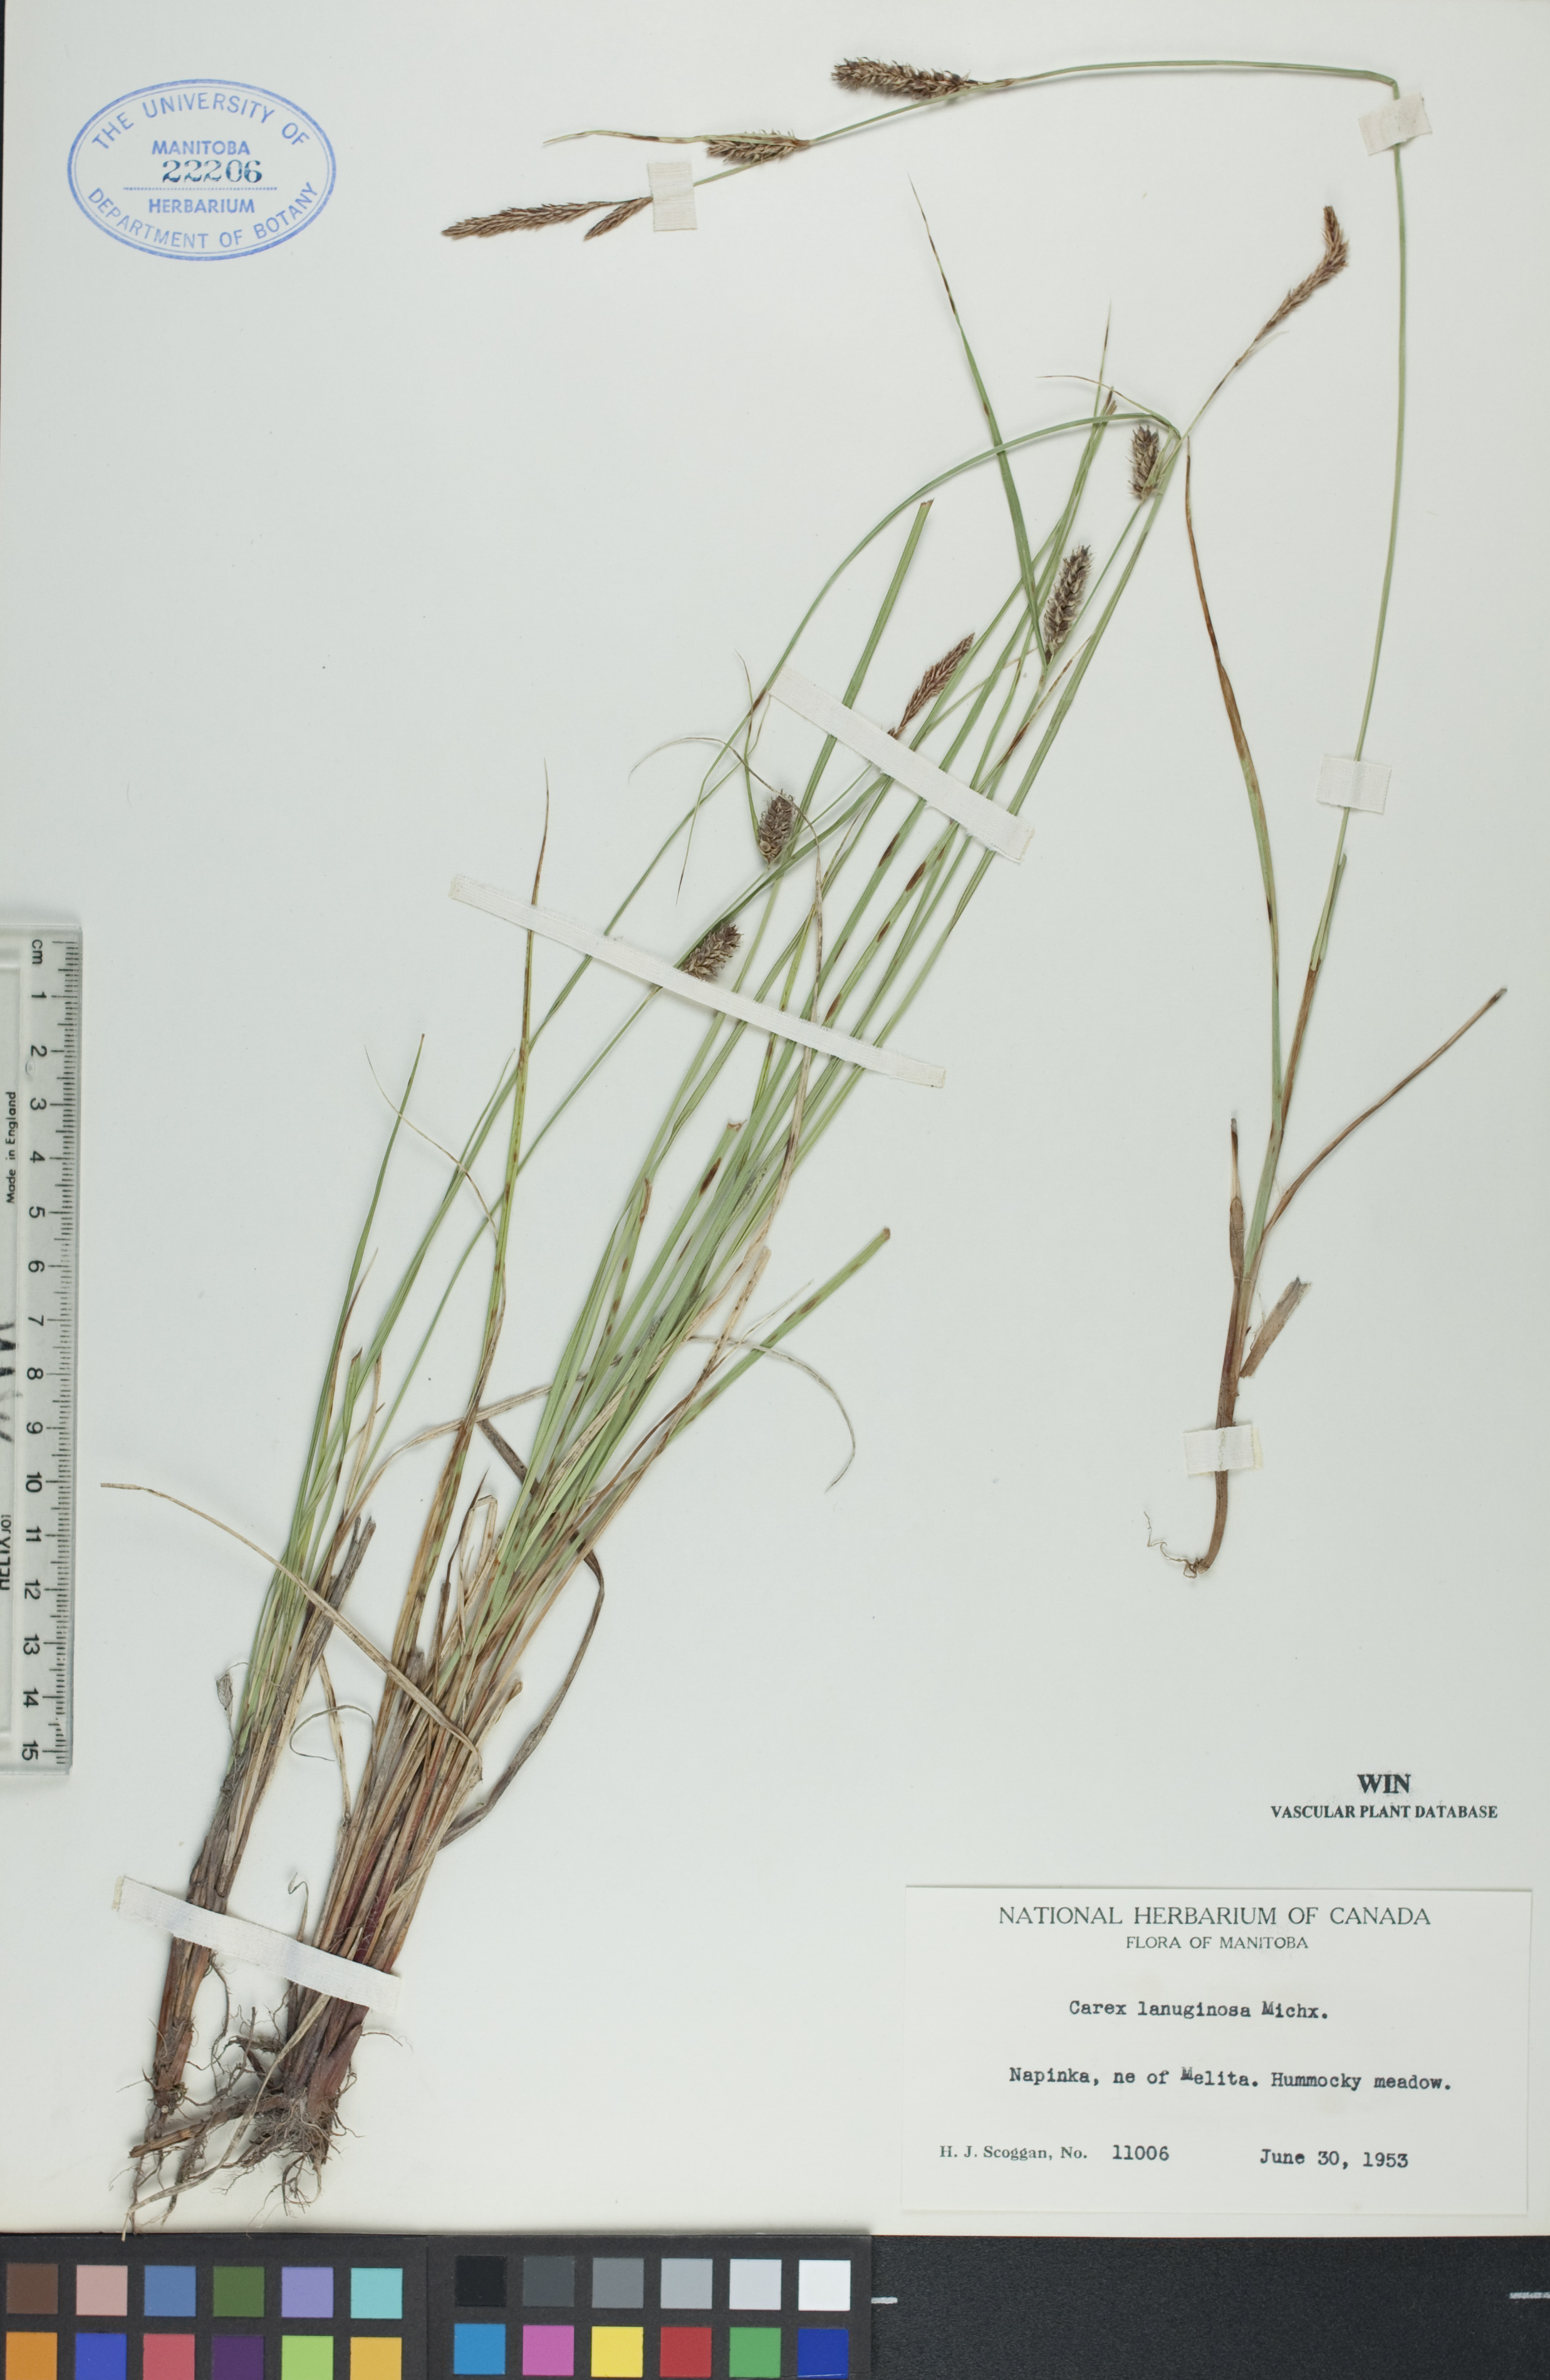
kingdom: Plantae
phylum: Tracheophyta
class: Liliopsida
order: Poales
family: Cyperaceae
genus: Carex
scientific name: Carex lasiocarpa
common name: Slender sedge
